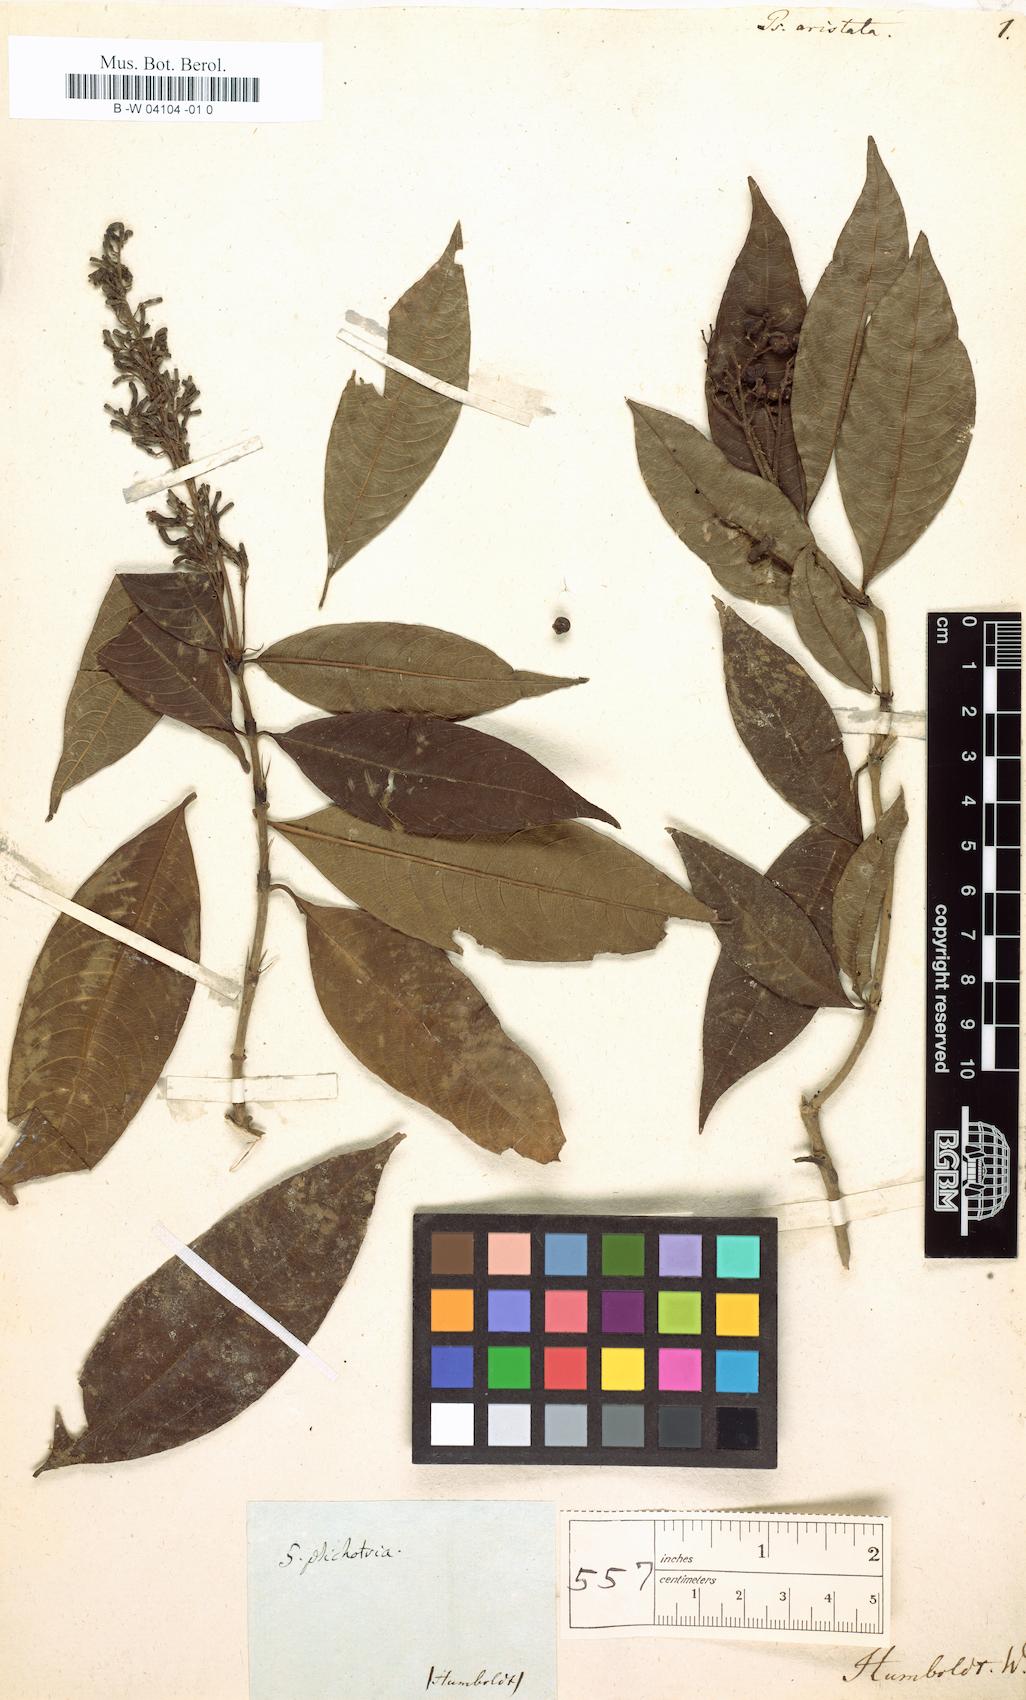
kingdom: Plantae
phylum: Tracheophyta
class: Magnoliopsida
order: Gentianales
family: Rubiaceae
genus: Psychotria
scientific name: Psychotria aristata
